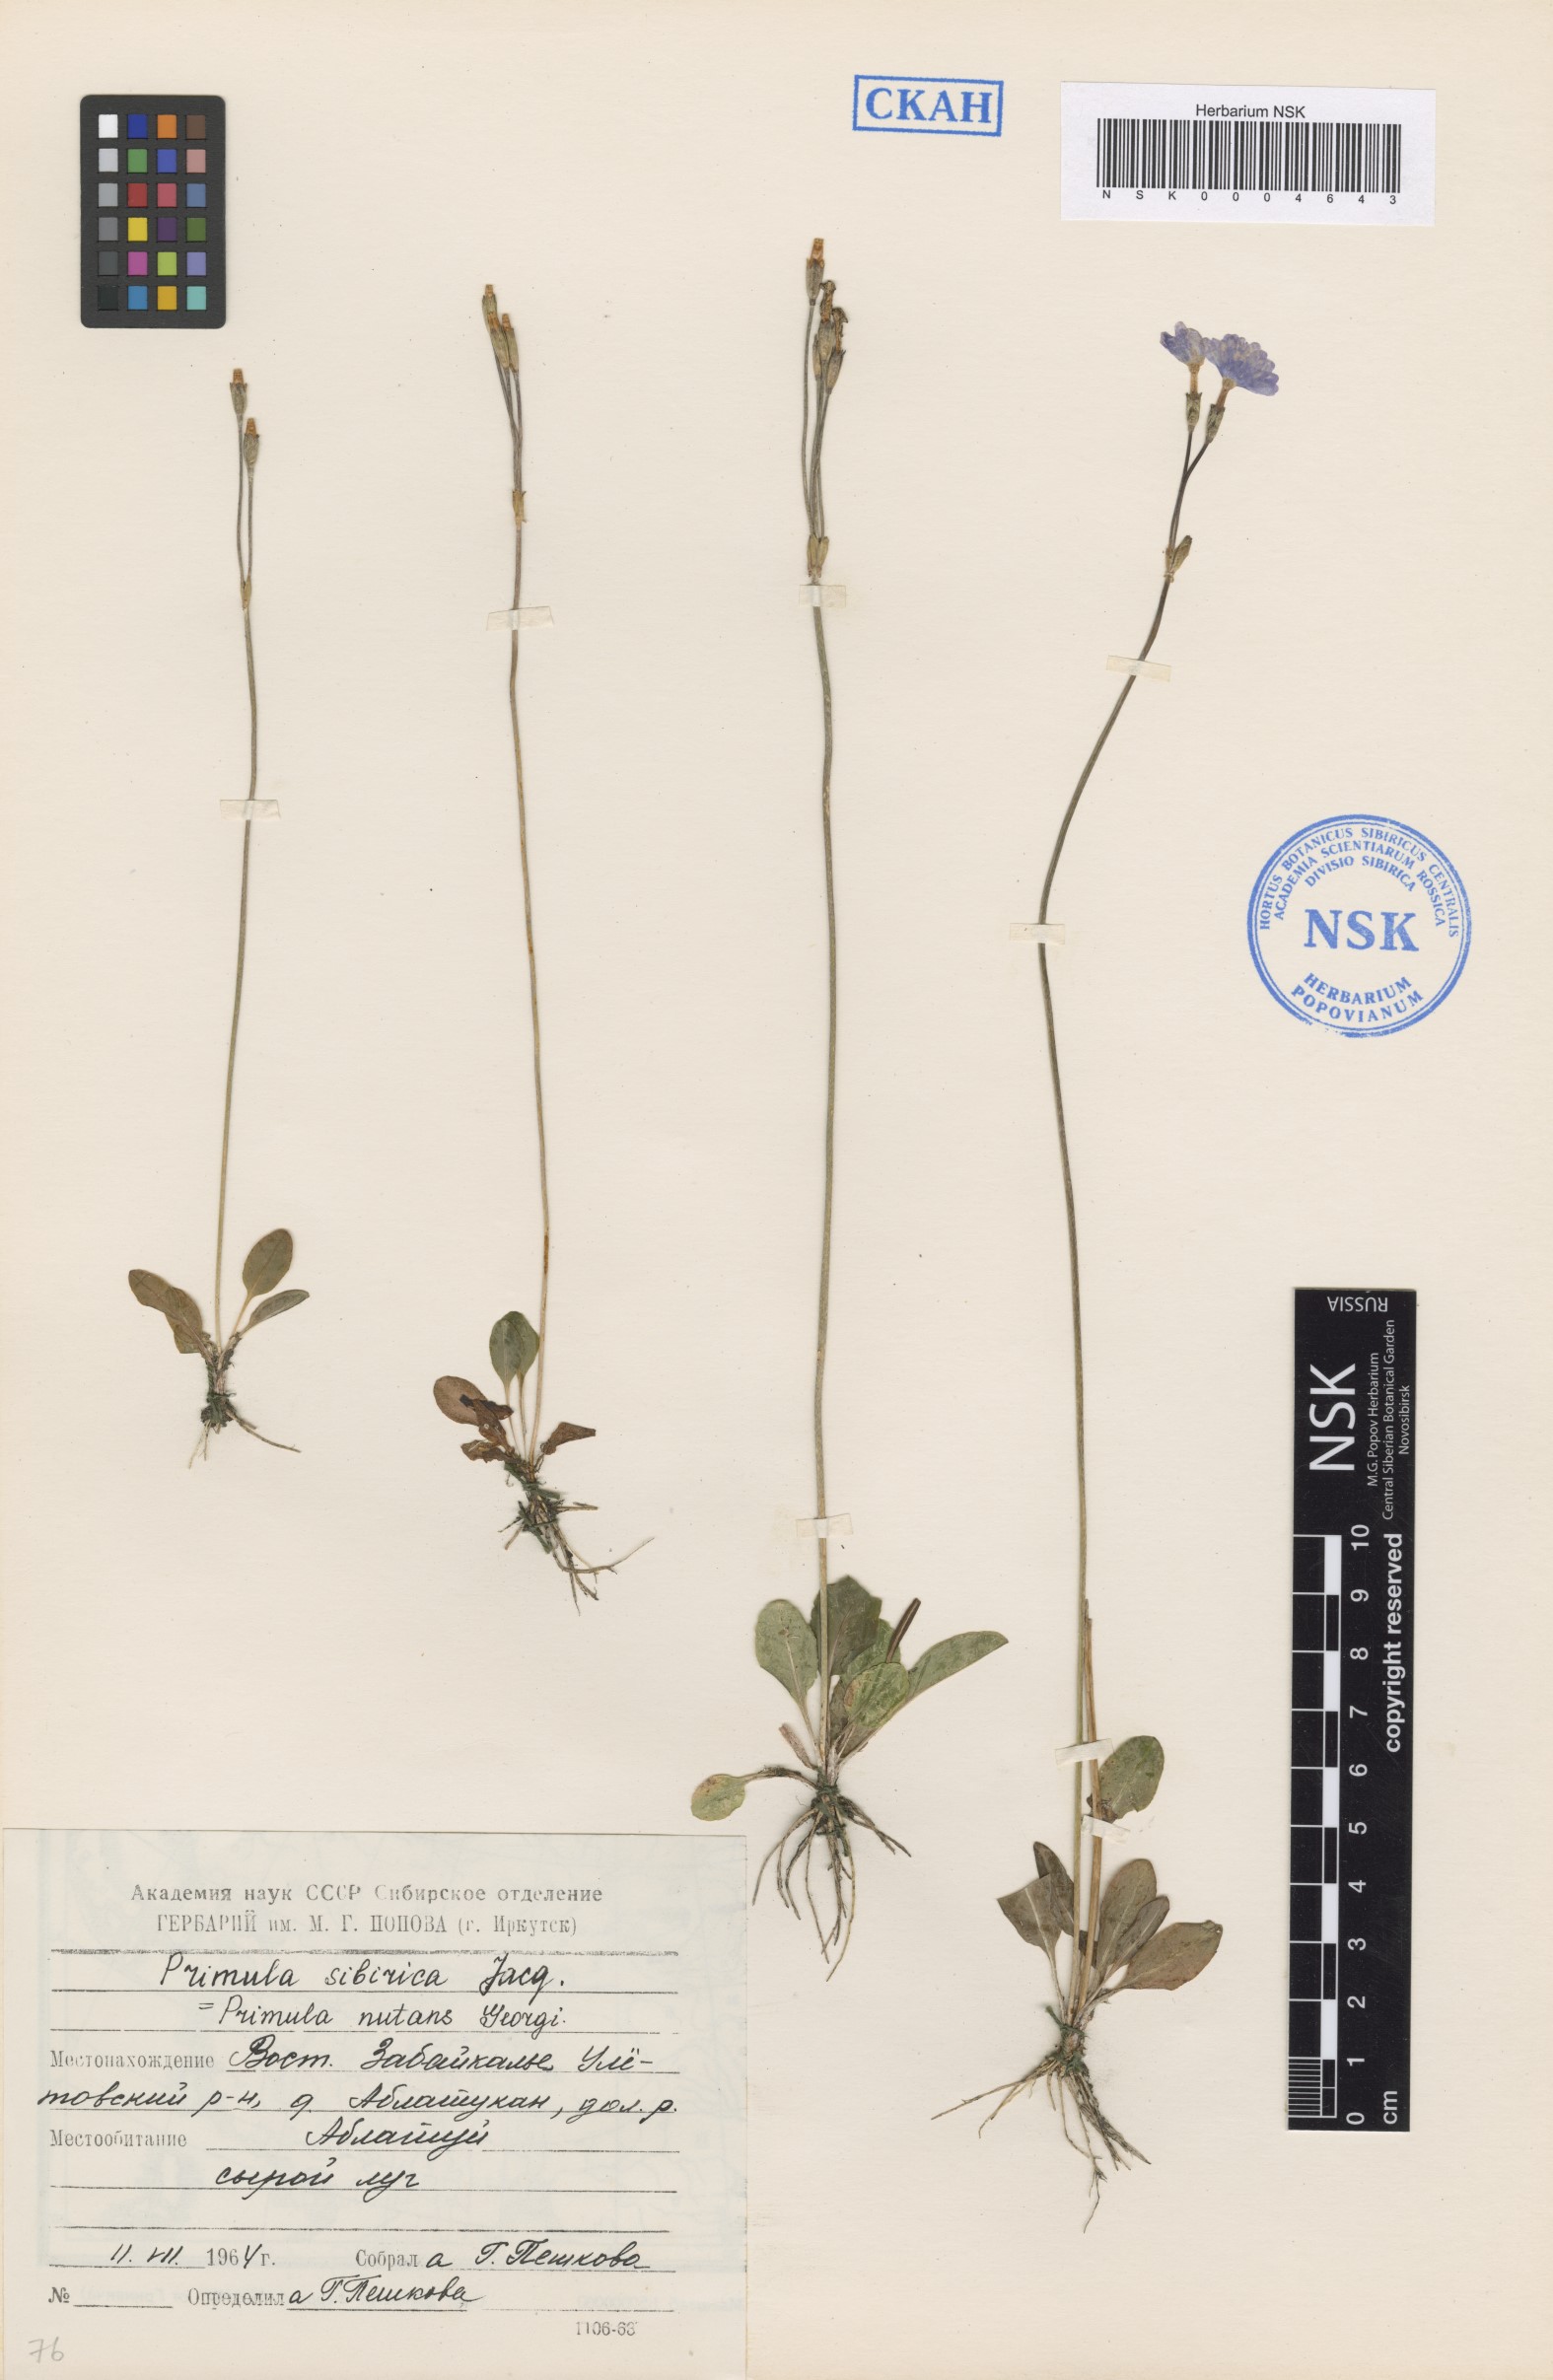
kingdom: Plantae
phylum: Tracheophyta
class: Magnoliopsida
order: Ericales
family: Primulaceae
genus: Primula
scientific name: Primula nutans
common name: Siberian primrose
